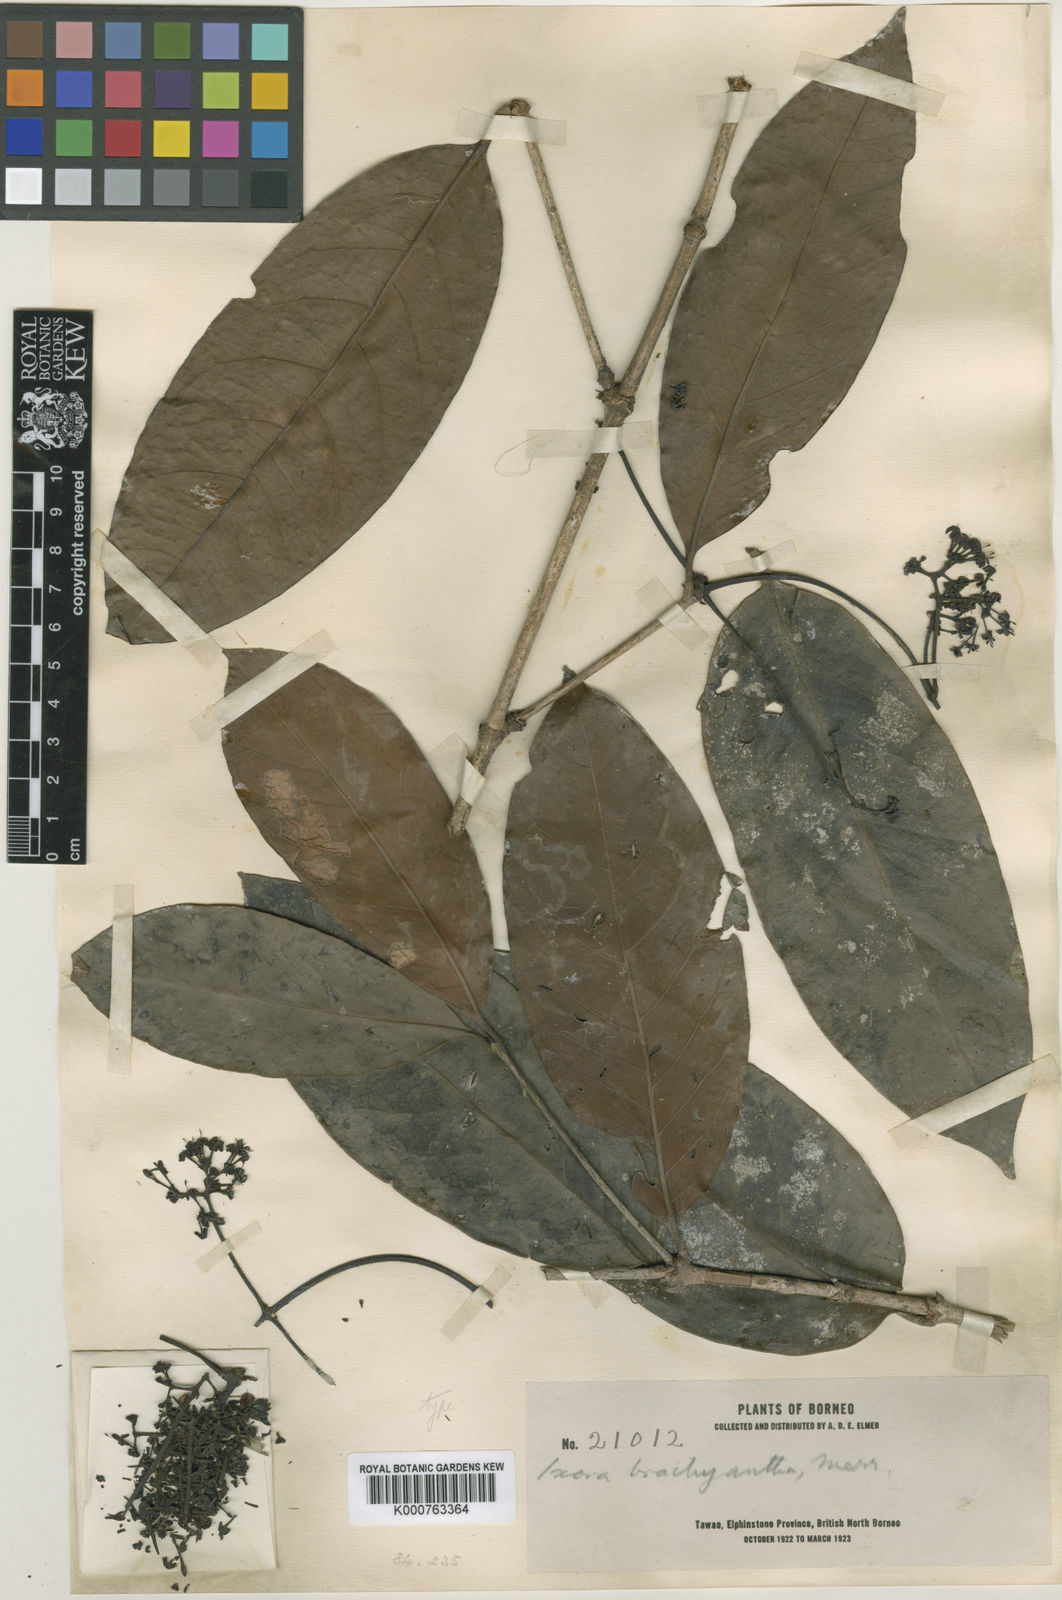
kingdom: Plantae
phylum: Tracheophyta
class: Magnoliopsida
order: Gentianales
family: Rubiaceae
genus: Ixora
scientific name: Ixora brachyantha
